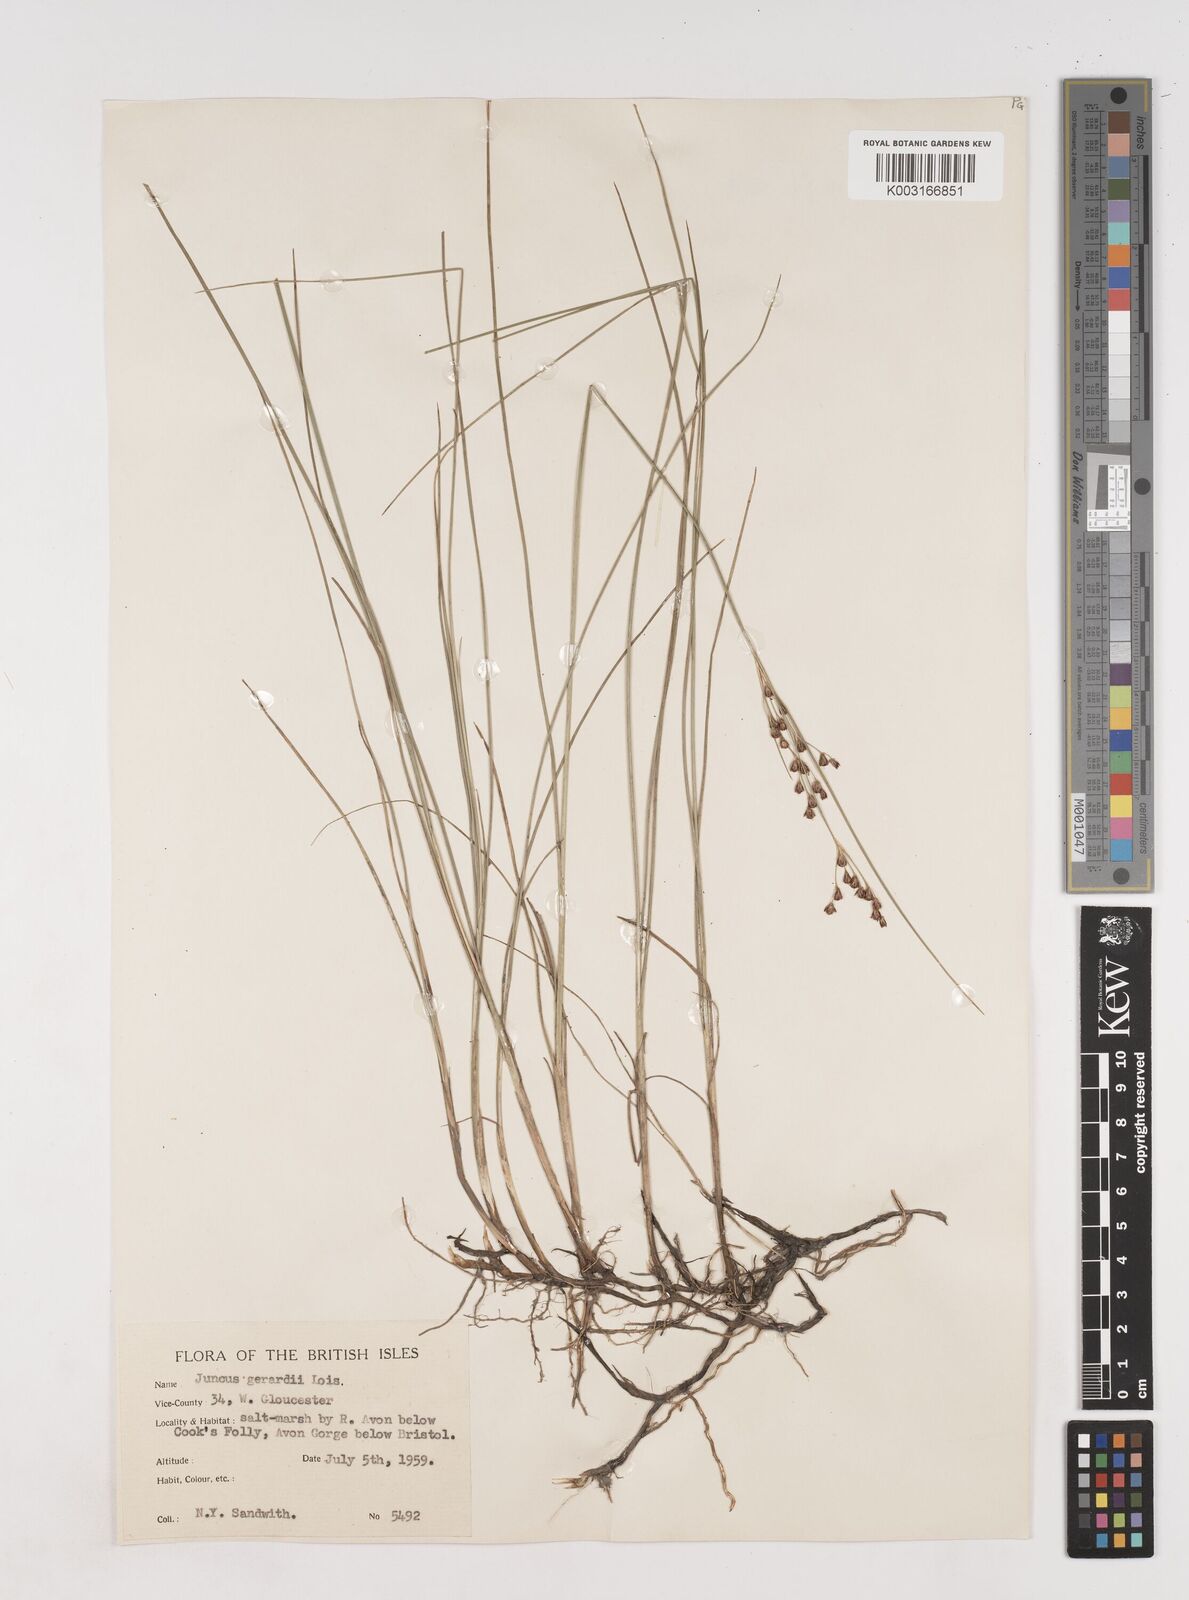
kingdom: Plantae
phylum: Tracheophyta
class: Liliopsida
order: Poales
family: Juncaceae
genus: Juncus
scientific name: Juncus gerardi
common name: Saltmarsh rush
